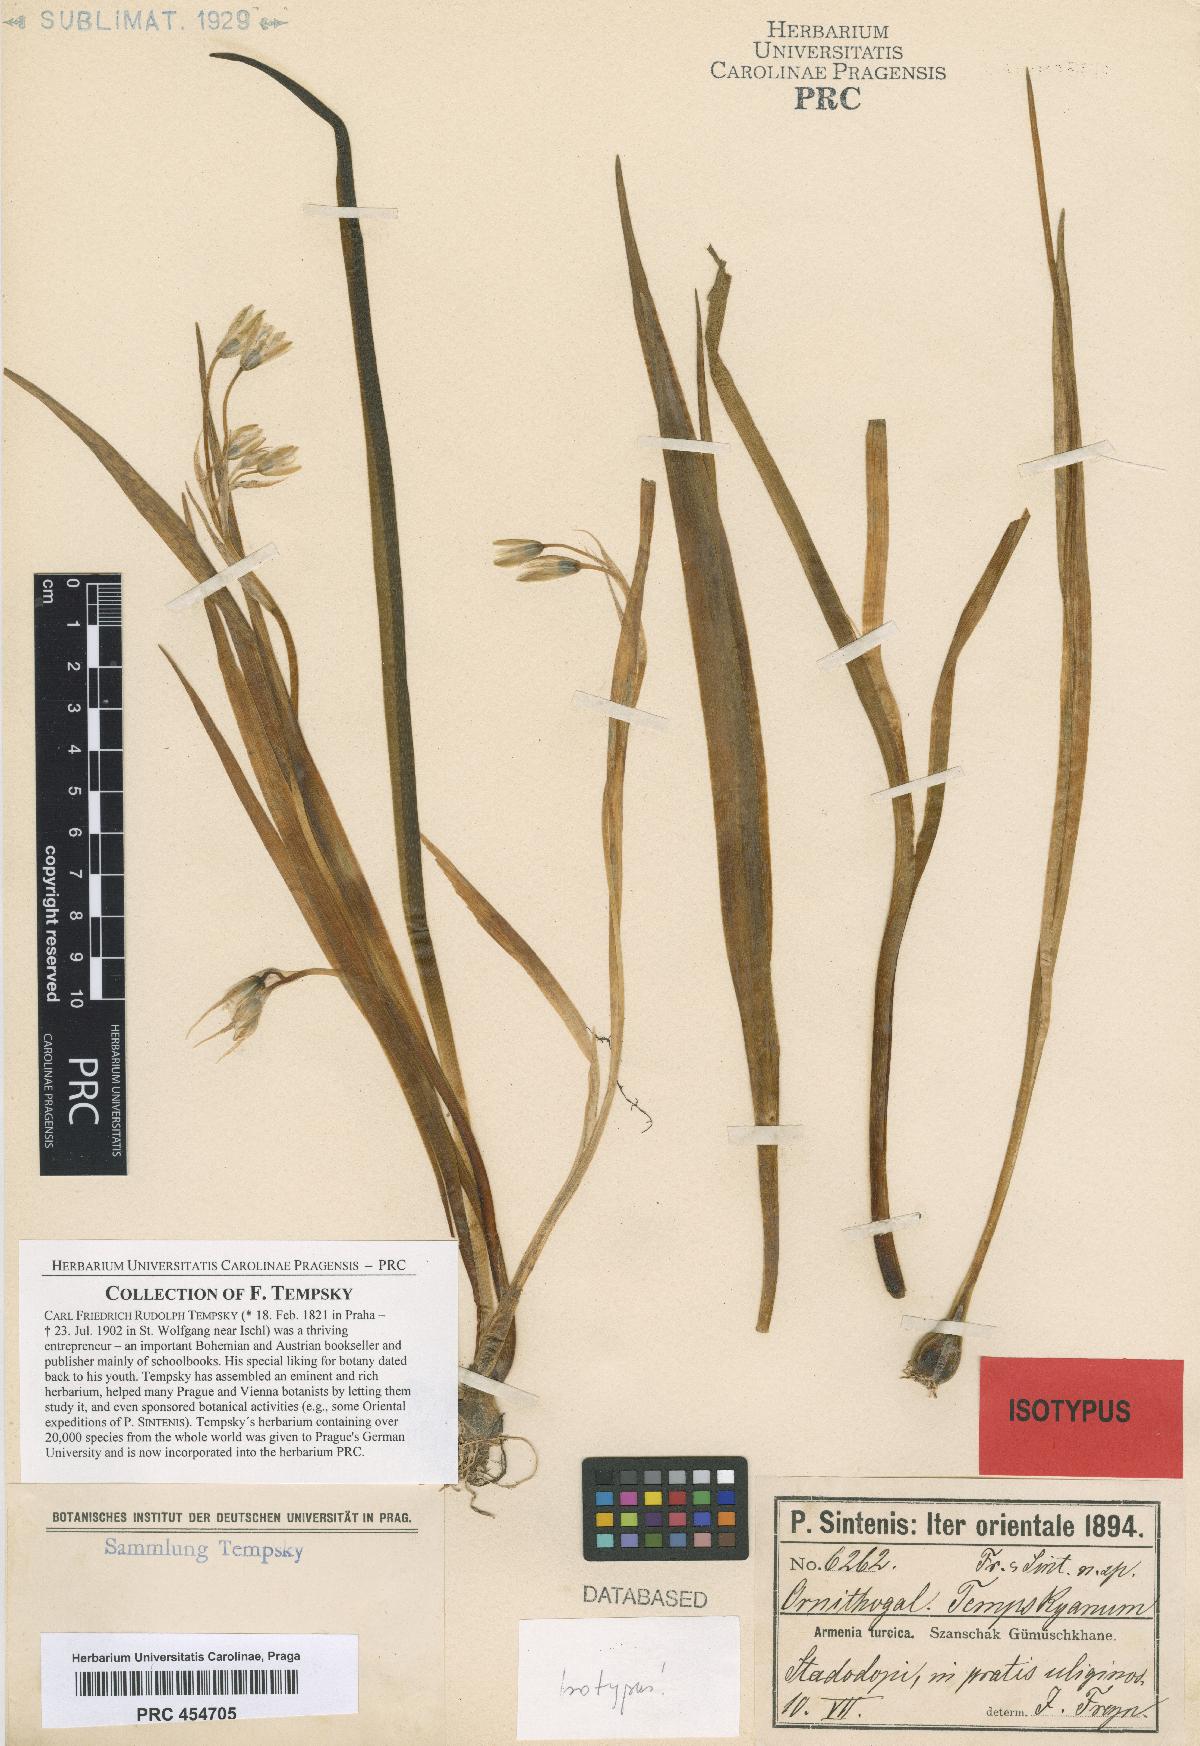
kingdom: Plantae
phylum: Tracheophyta
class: Liliopsida
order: Asparagales
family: Asparagaceae
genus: Ornithogalum
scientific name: Ornithogalum graciliflorum
